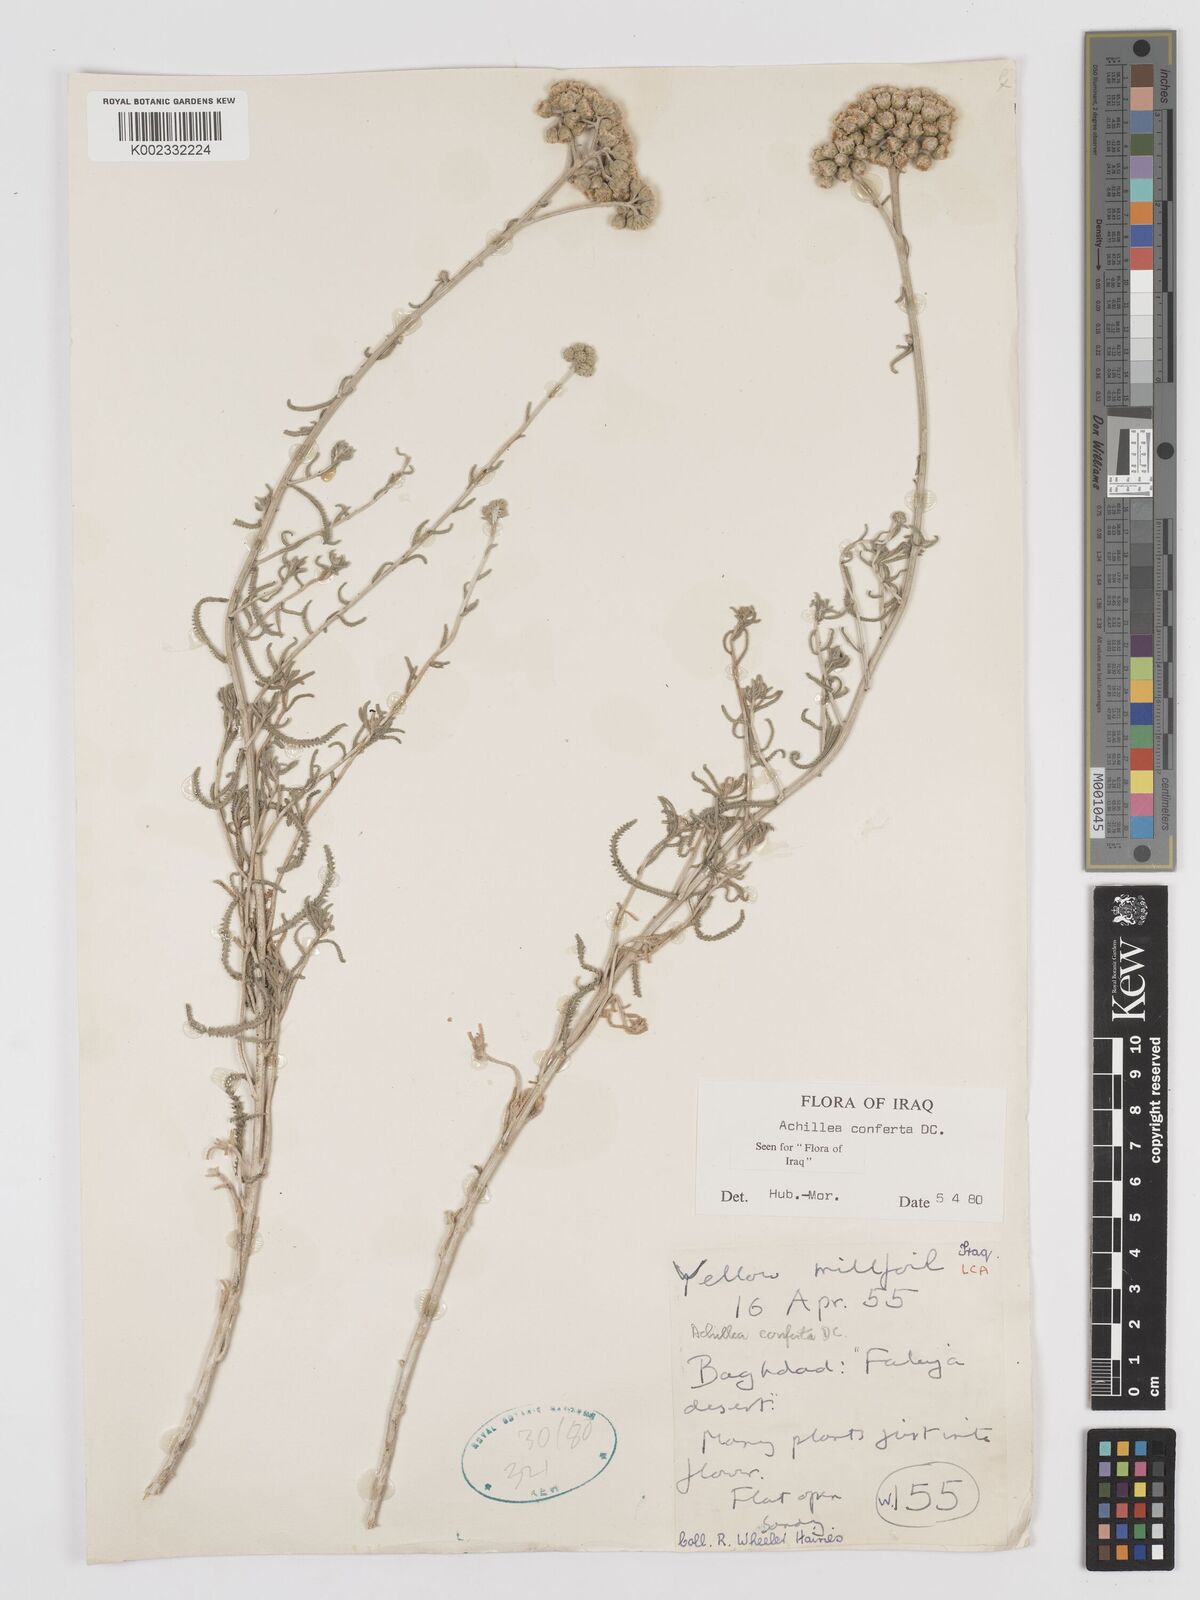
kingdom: Plantae
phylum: Tracheophyta
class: Magnoliopsida
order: Asterales
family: Asteraceae
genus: Achillea
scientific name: Achillea conferta
